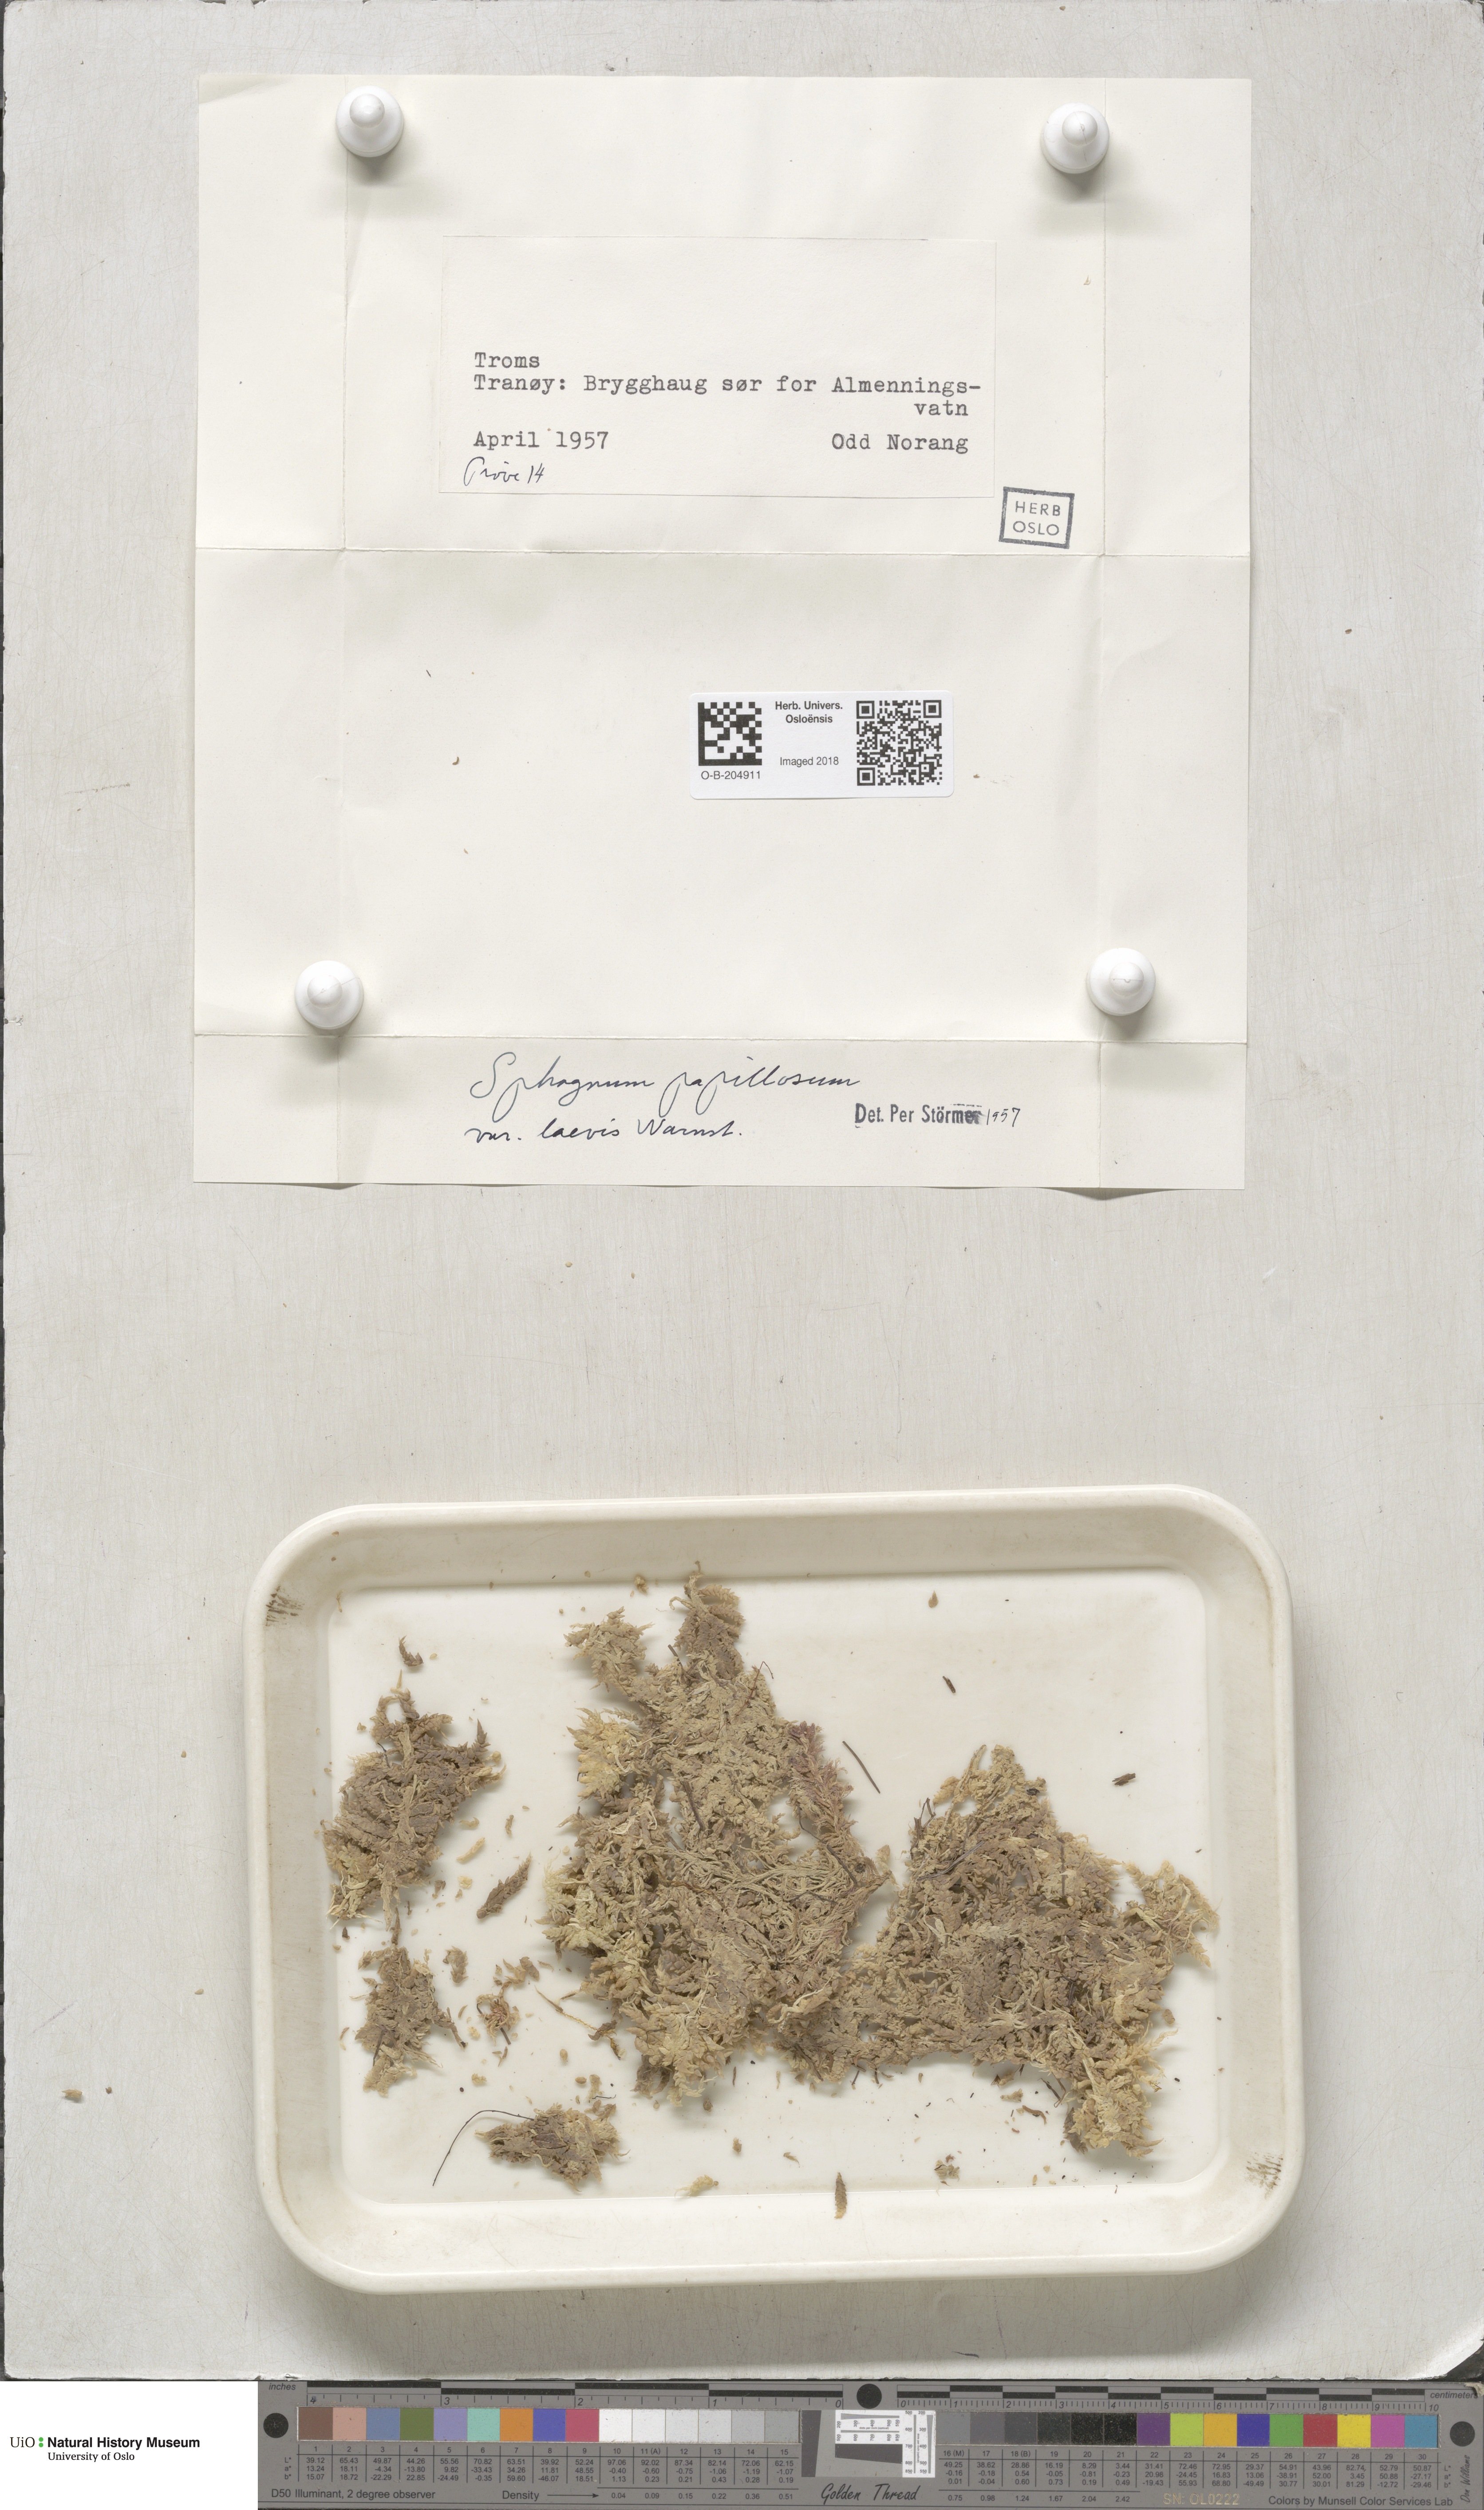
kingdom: Plantae
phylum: Bryophyta
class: Sphagnopsida
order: Sphagnales
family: Sphagnaceae
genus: Sphagnum
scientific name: Sphagnum papillosum
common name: Papillose peat moss
